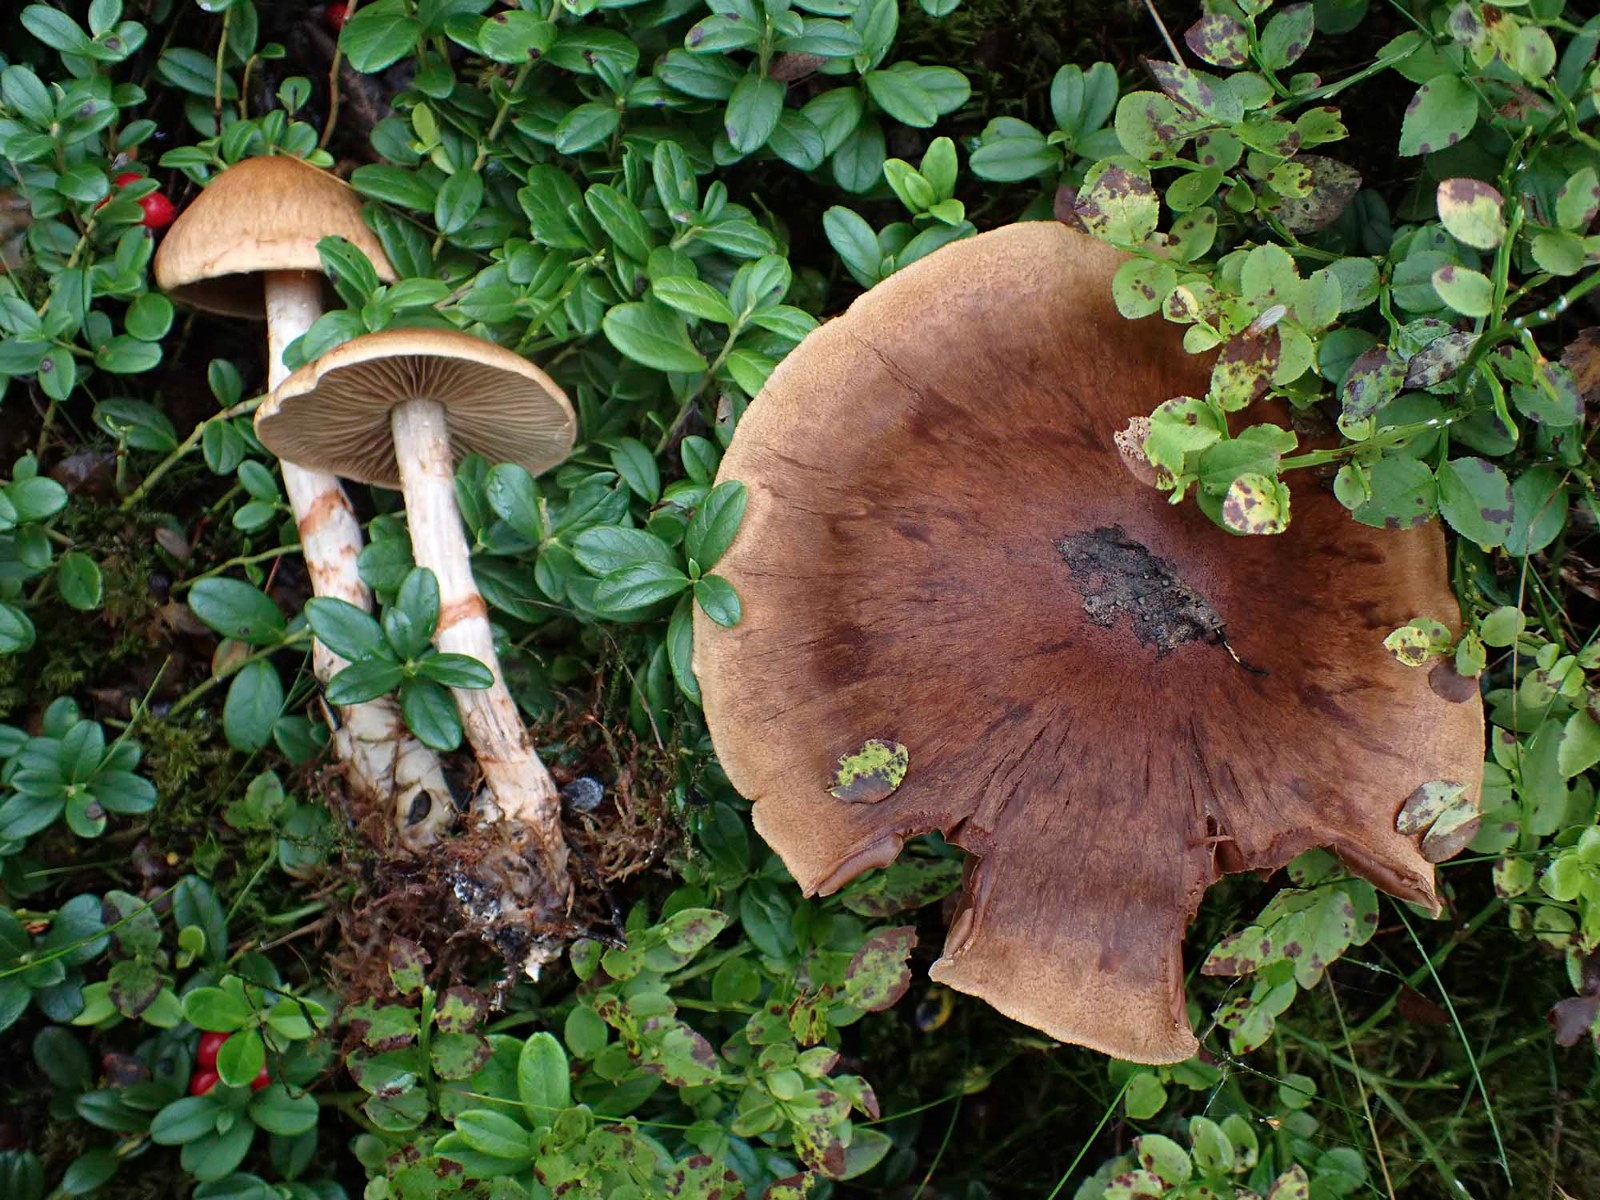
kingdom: Fungi
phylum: Basidiomycota
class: Agaricomycetes
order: Agaricales
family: Cortinariaceae
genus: Cortinarius
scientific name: Cortinarius armillatus
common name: cinnoberbæltet slørhat
